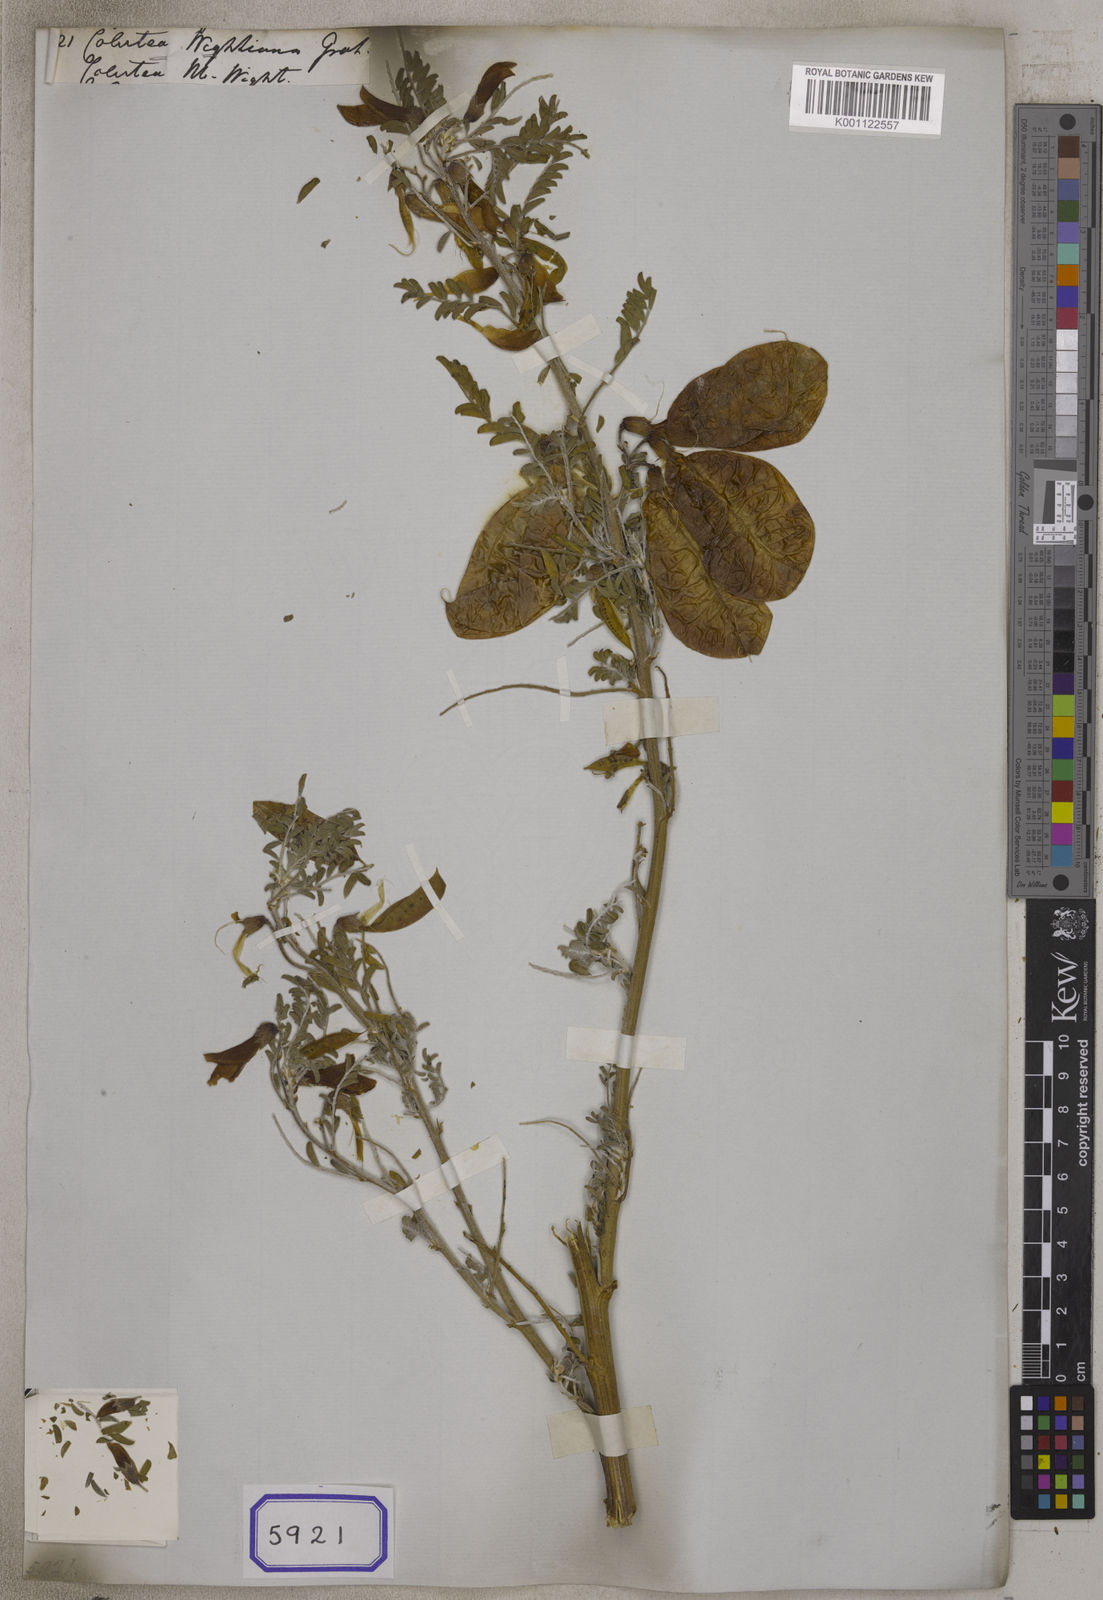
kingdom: Plantae
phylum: Tracheophyta
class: Magnoliopsida
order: Fabales
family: Fabaceae
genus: Colutea
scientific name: Colutea
